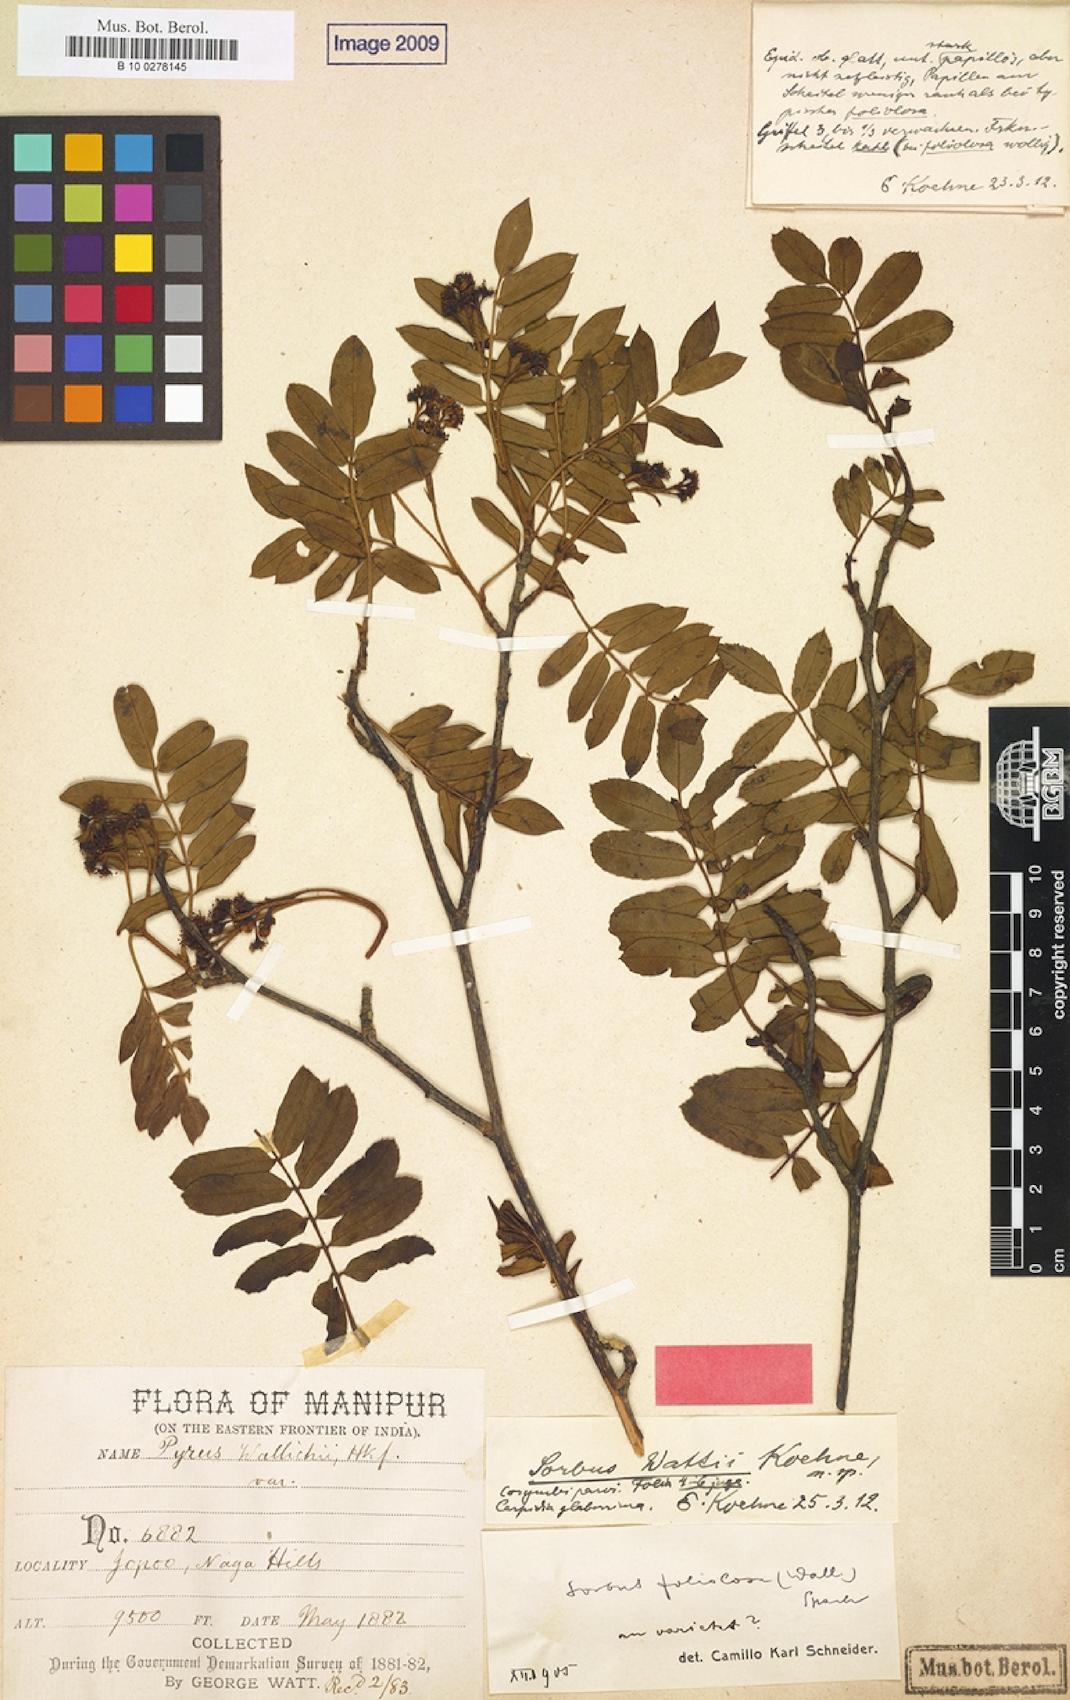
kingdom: Plantae
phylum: Tracheophyta
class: Magnoliopsida
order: Rosales
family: Rosaceae
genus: Sorbus
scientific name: Sorbus wallichii
